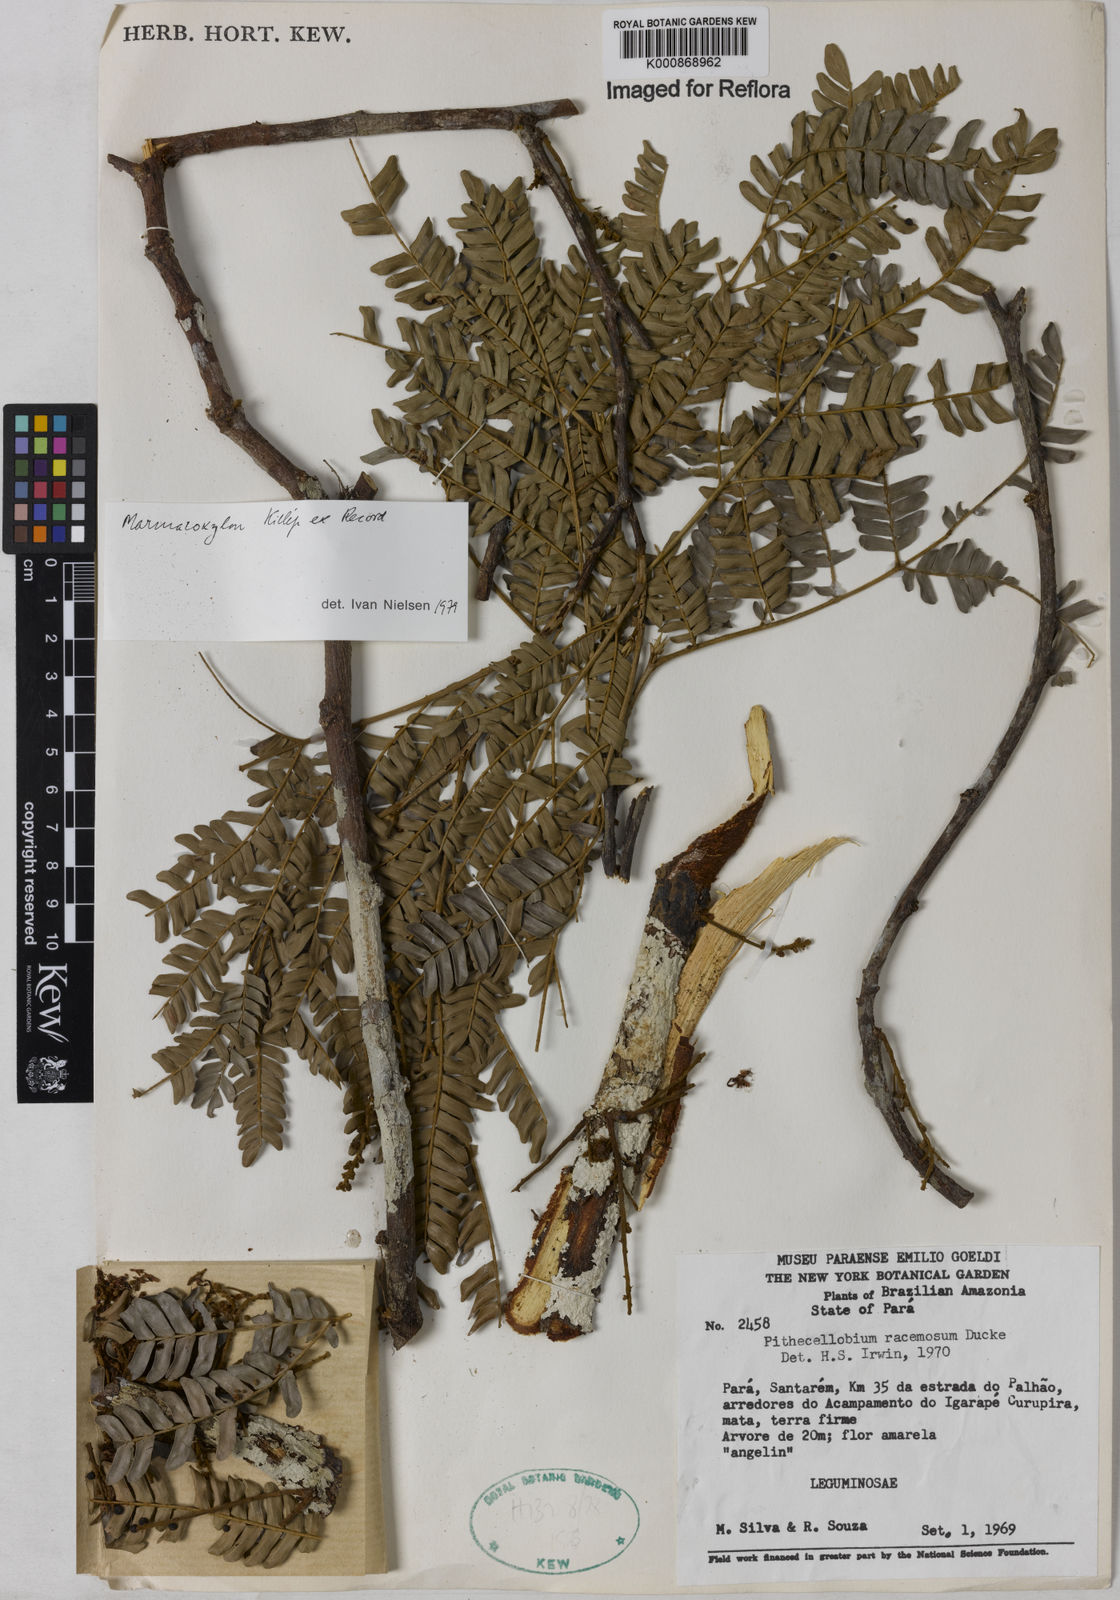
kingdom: Plantae
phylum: Tracheophyta
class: Magnoliopsida
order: Fabales
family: Fabaceae
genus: Marmaroxylon
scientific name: Marmaroxylon
